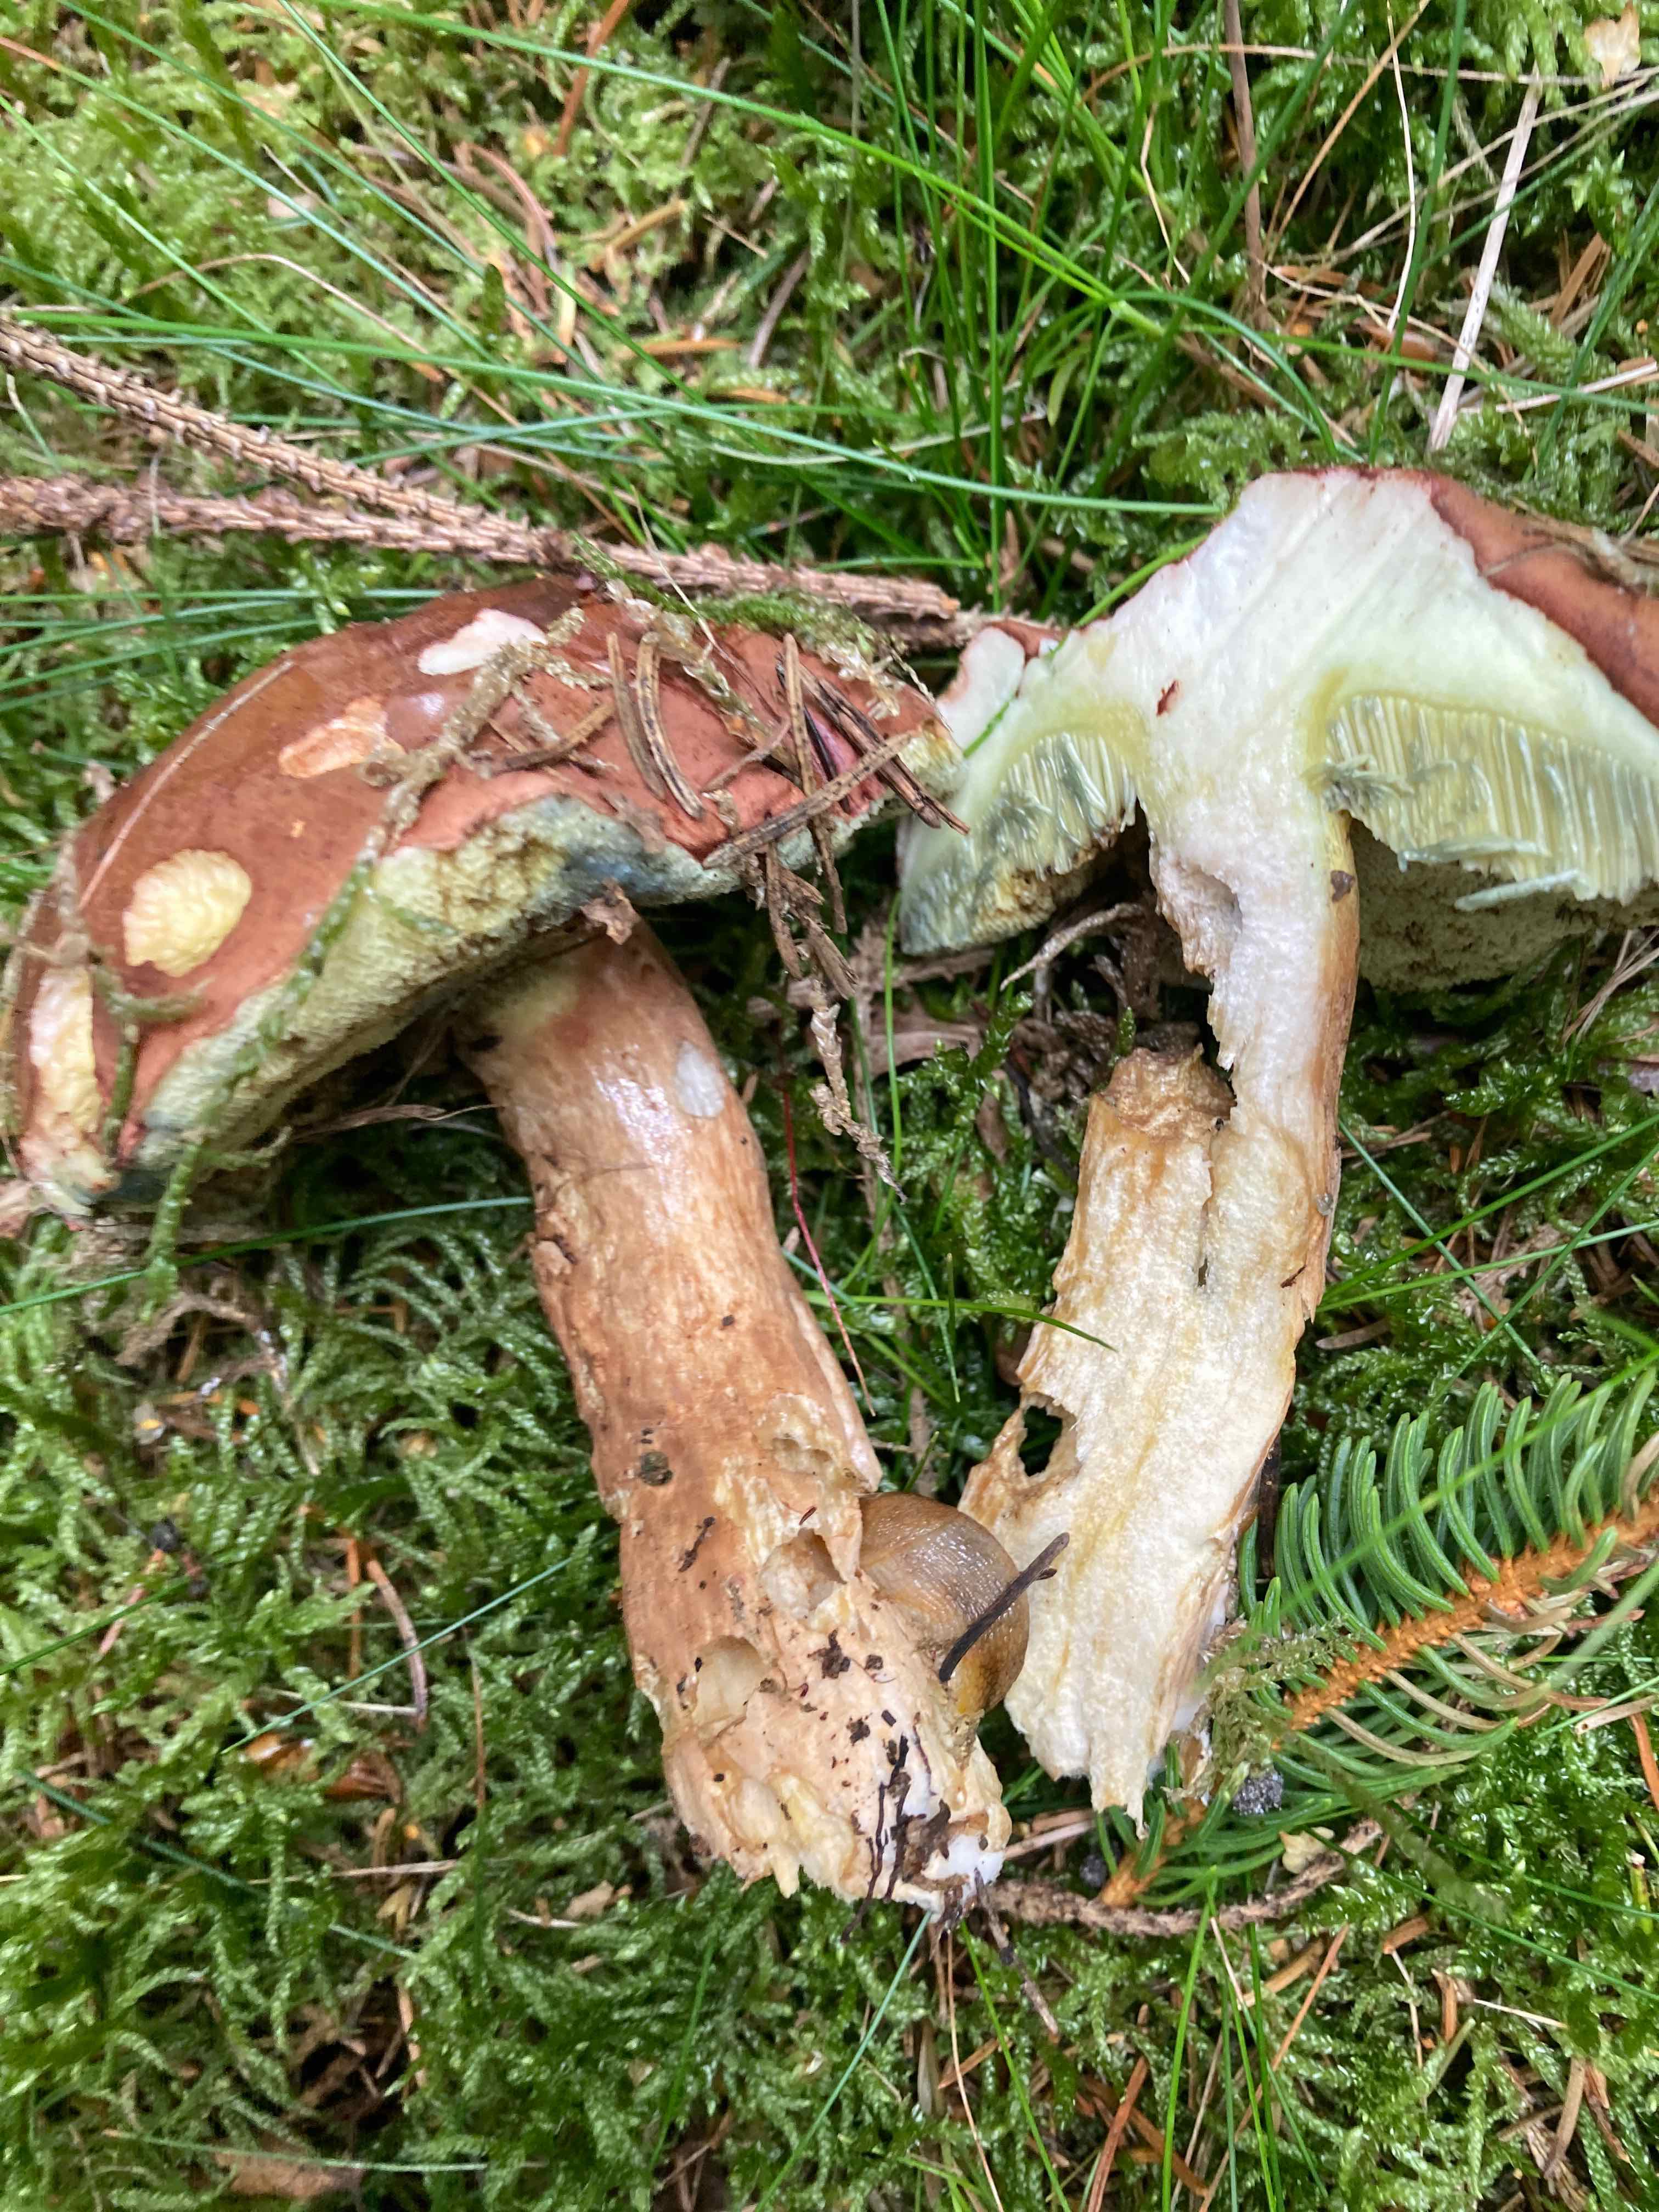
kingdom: Fungi
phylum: Basidiomycota
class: Agaricomycetes
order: Boletales
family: Boletaceae
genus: Imleria
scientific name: Imleria badia
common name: brunstokket rørhat
